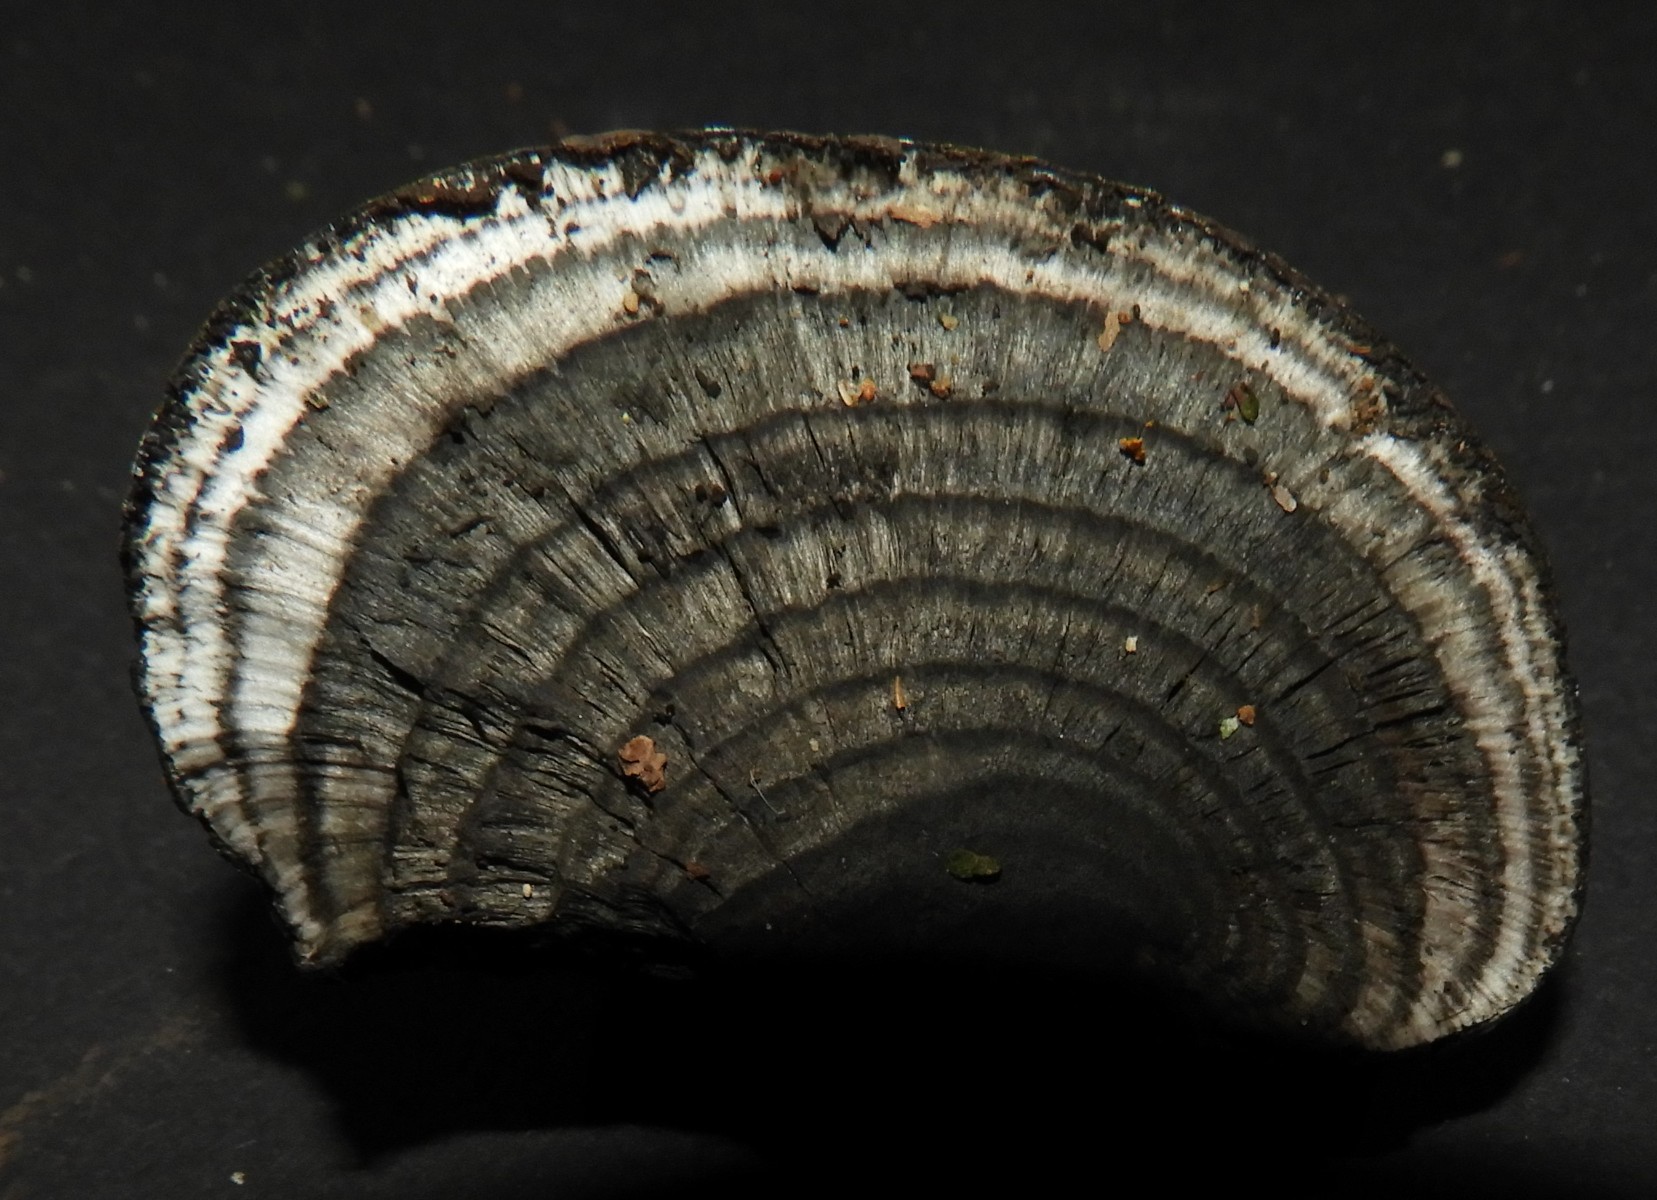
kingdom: Fungi
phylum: Ascomycota
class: Sordariomycetes
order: Xylariales
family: Hypoxylaceae
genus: Daldinia
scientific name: Daldinia concentrica
